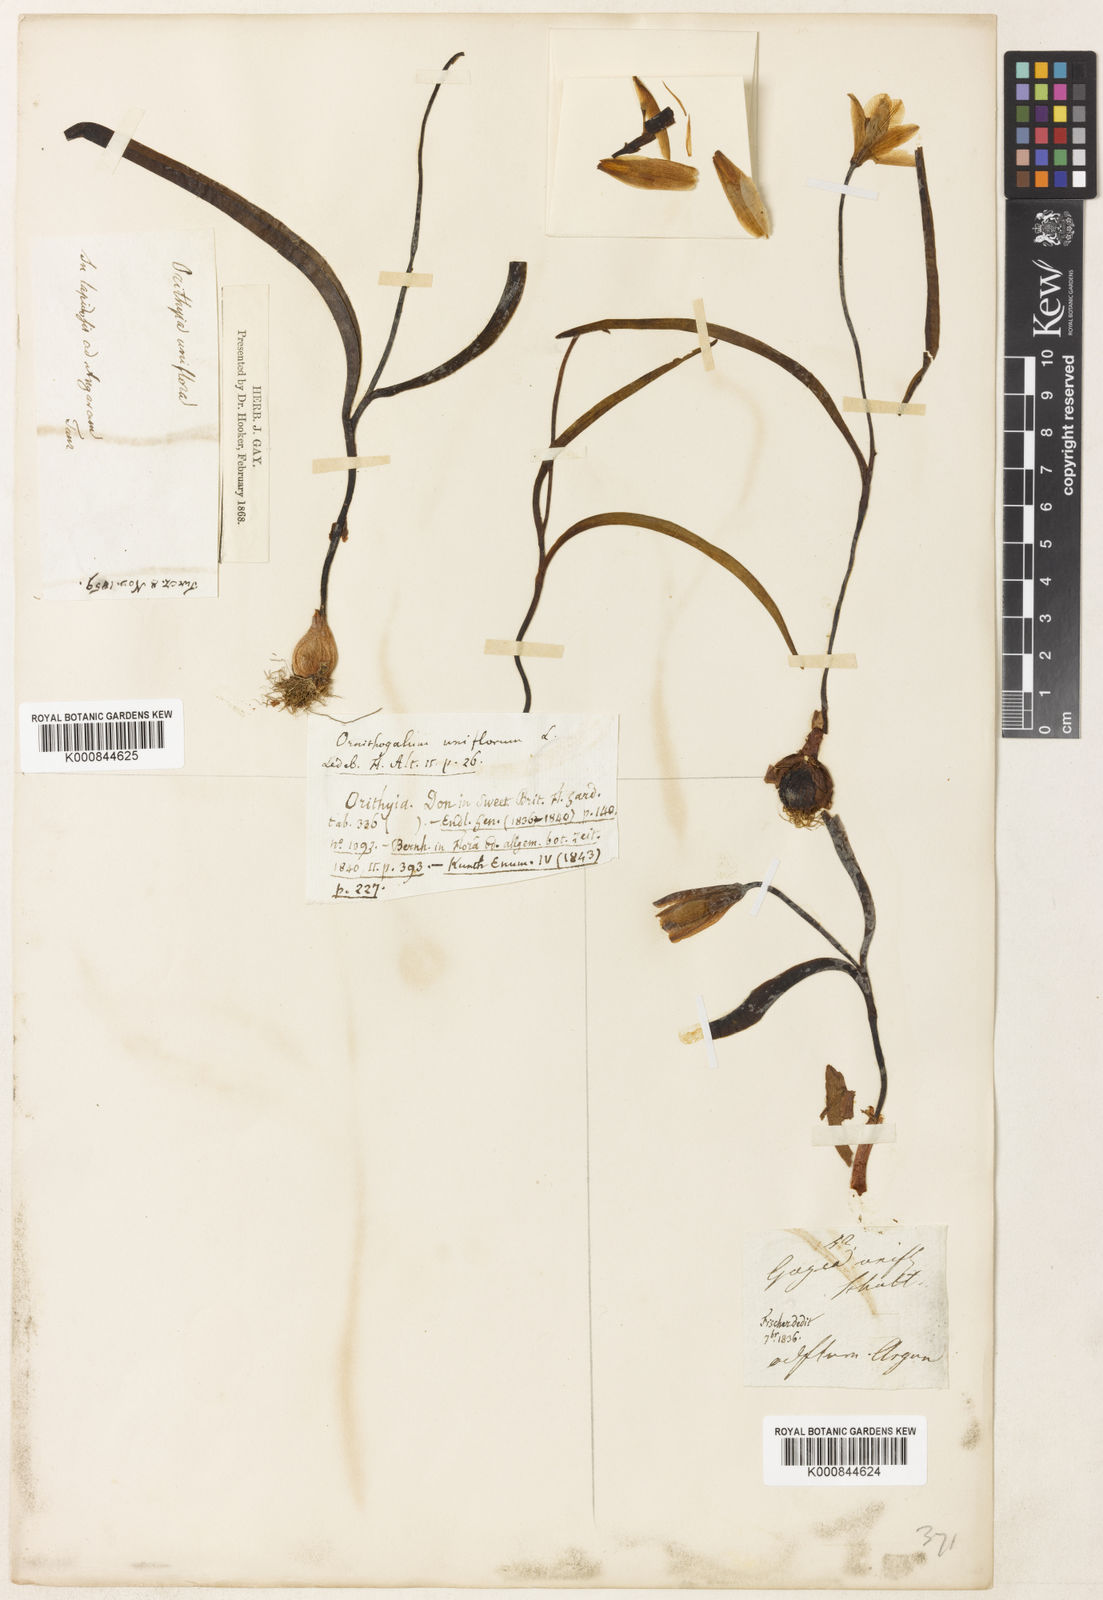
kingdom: Plantae
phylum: Tracheophyta
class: Liliopsida
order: Liliales
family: Liliaceae
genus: Tulipa
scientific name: Tulipa uniflora
